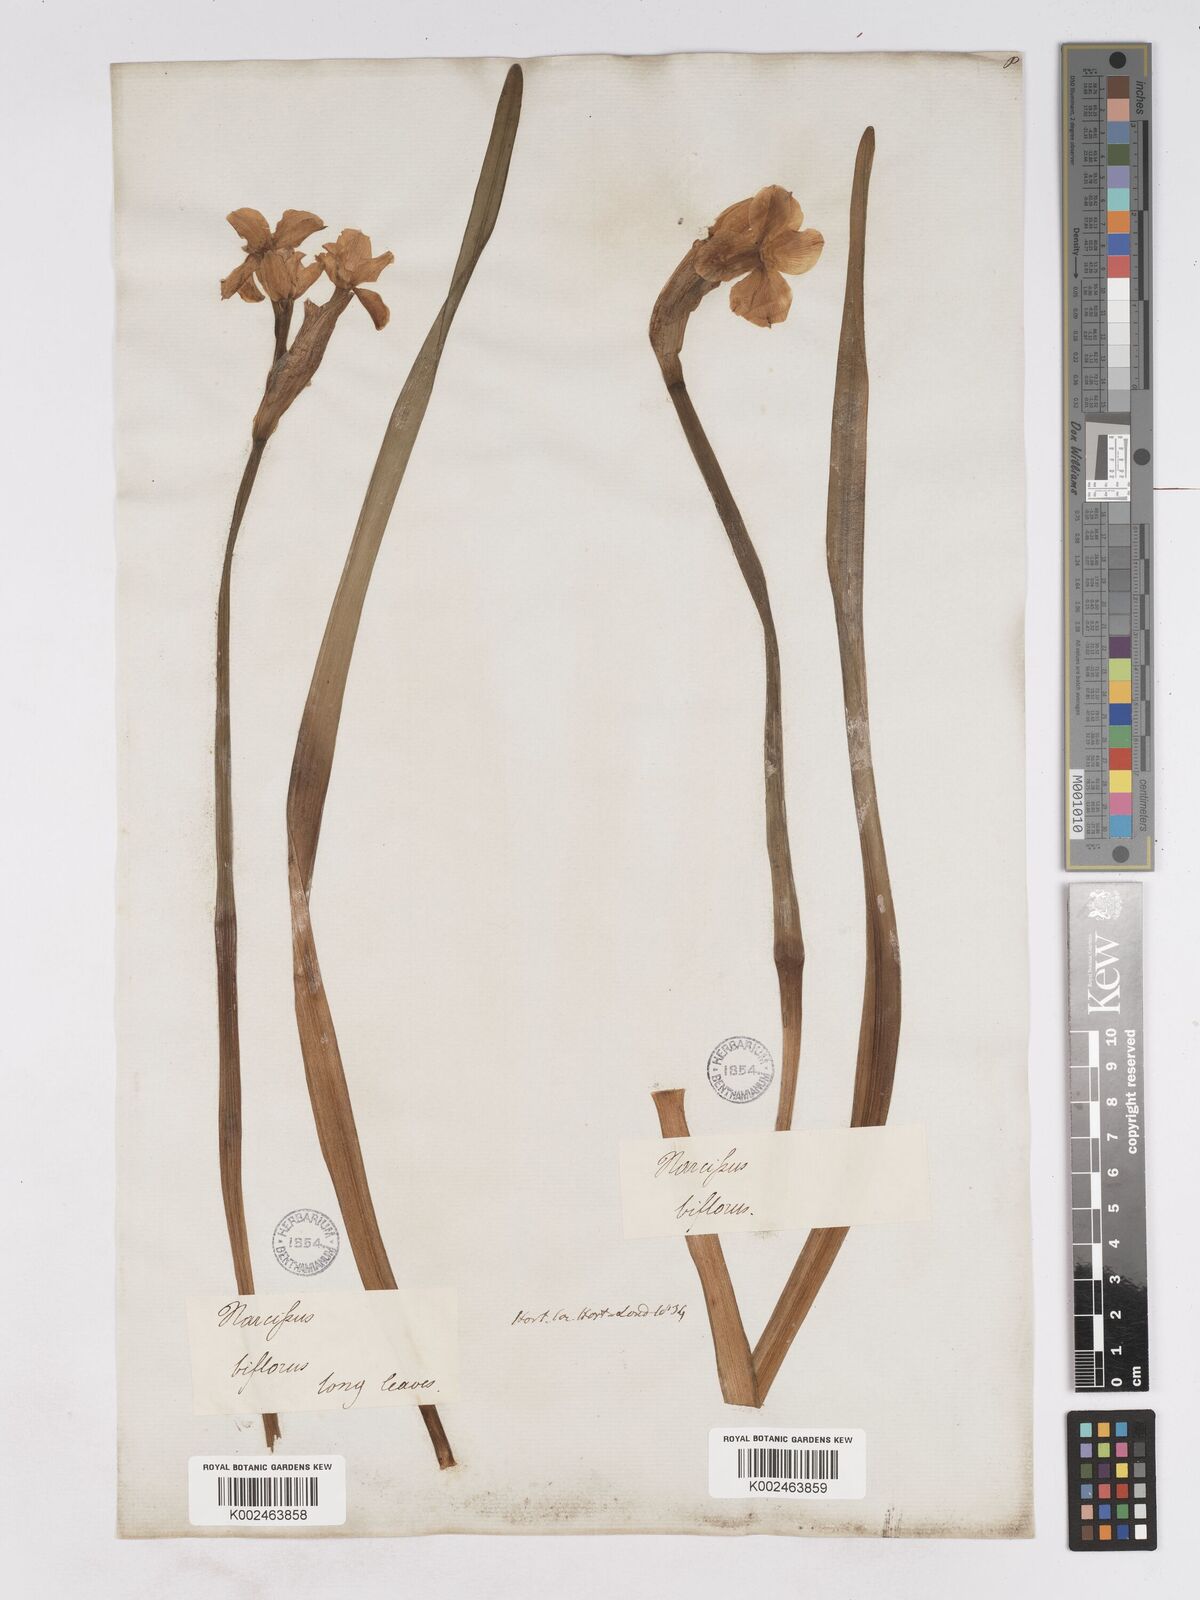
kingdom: Plantae
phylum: Tracheophyta
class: Liliopsida
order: Asparagales
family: Amaryllidaceae
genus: Narcissus
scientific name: Narcissus medioluteus
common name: Primrose-peerless
